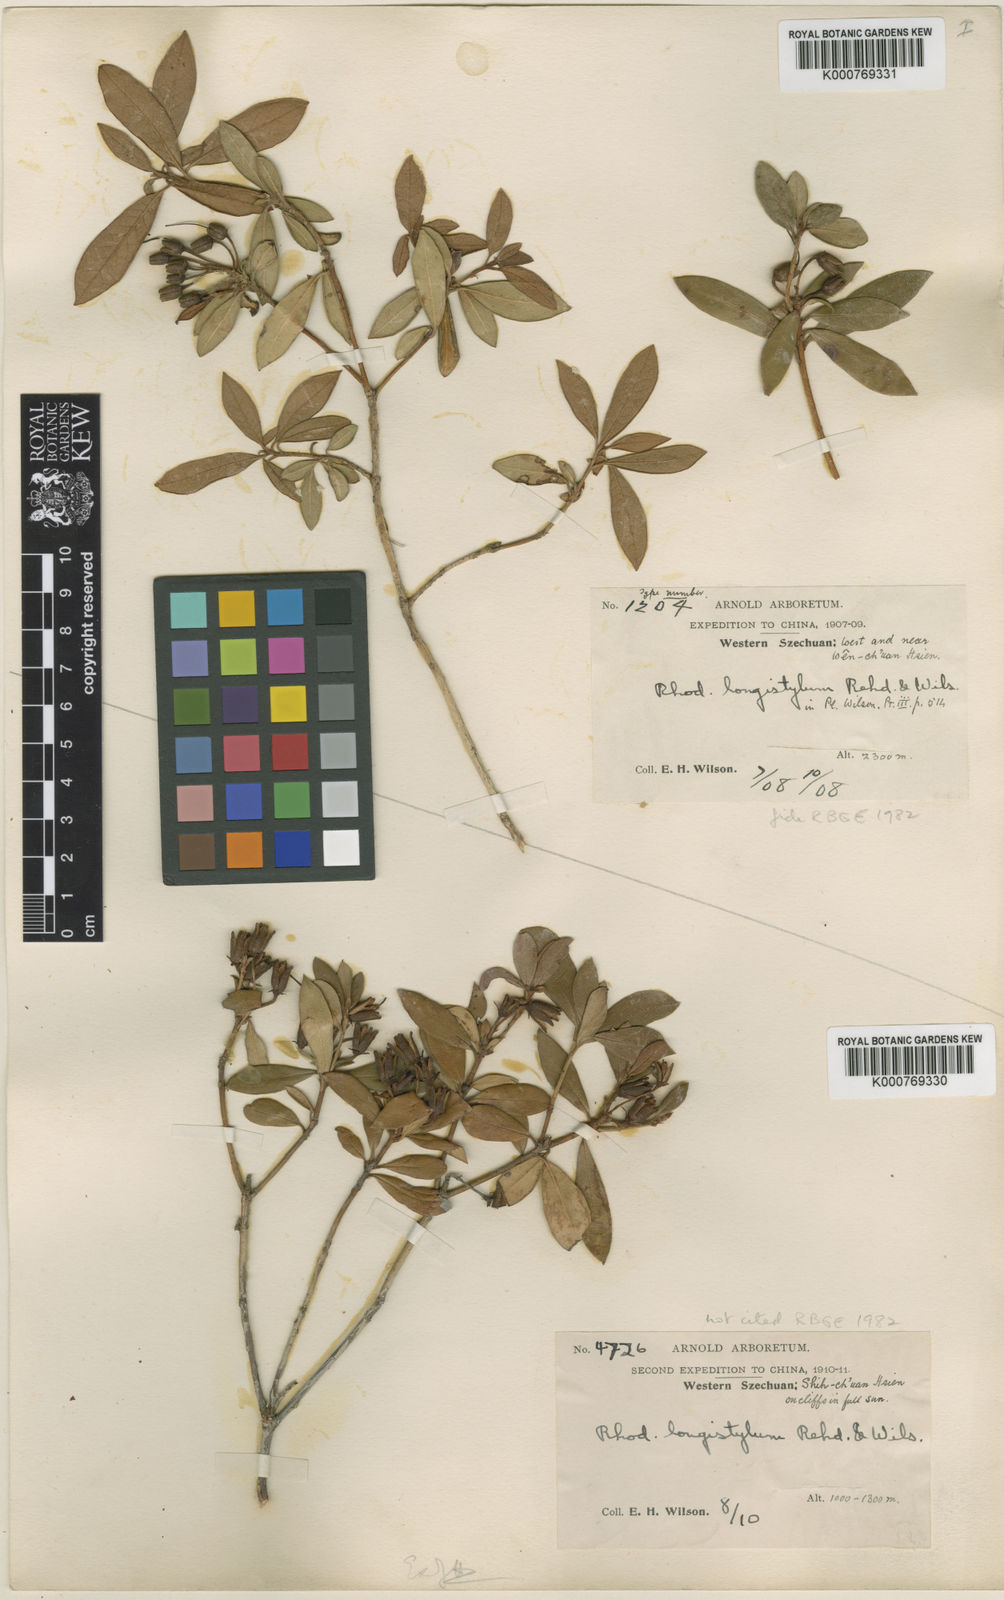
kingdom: Plantae
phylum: Tracheophyta
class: Magnoliopsida
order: Ericales
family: Ericaceae
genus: Rhododendron
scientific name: Rhododendron longistylum
